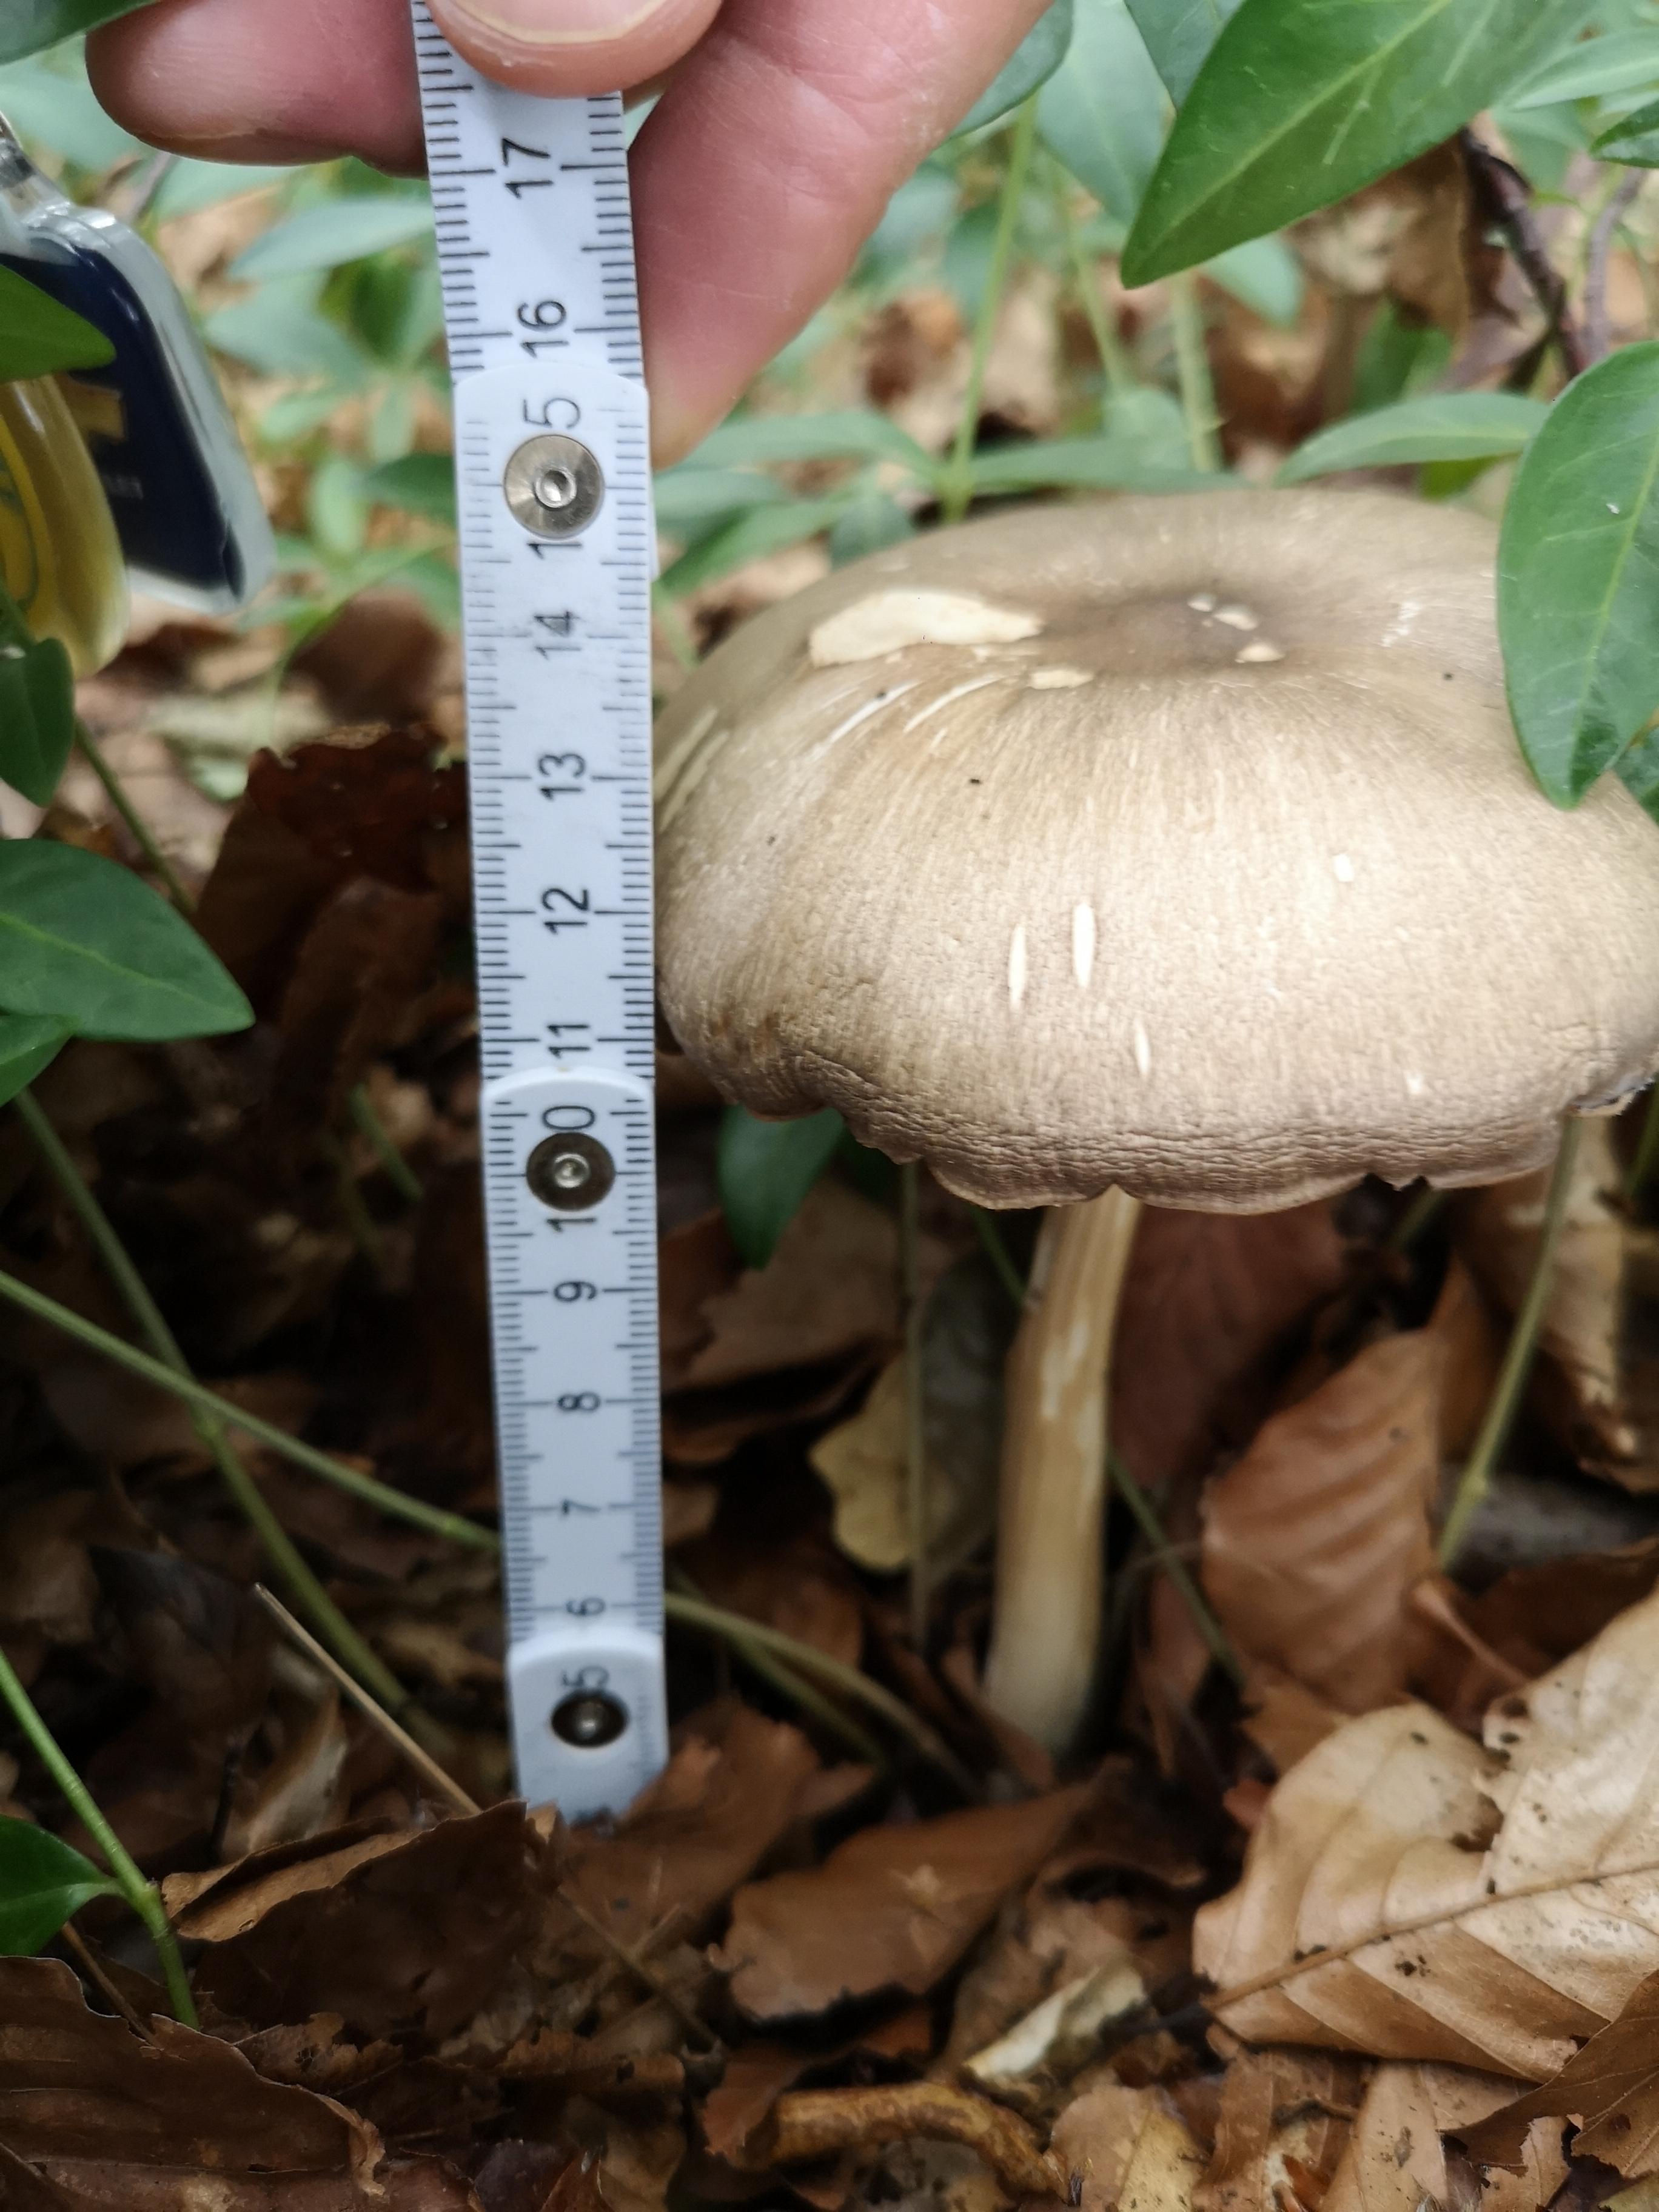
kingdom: Fungi
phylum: Basidiomycota
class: Agaricomycetes
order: Agaricales
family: Tricholomataceae
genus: Megacollybia
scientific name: Megacollybia platyphylla
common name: bredbladet væbnerhat
